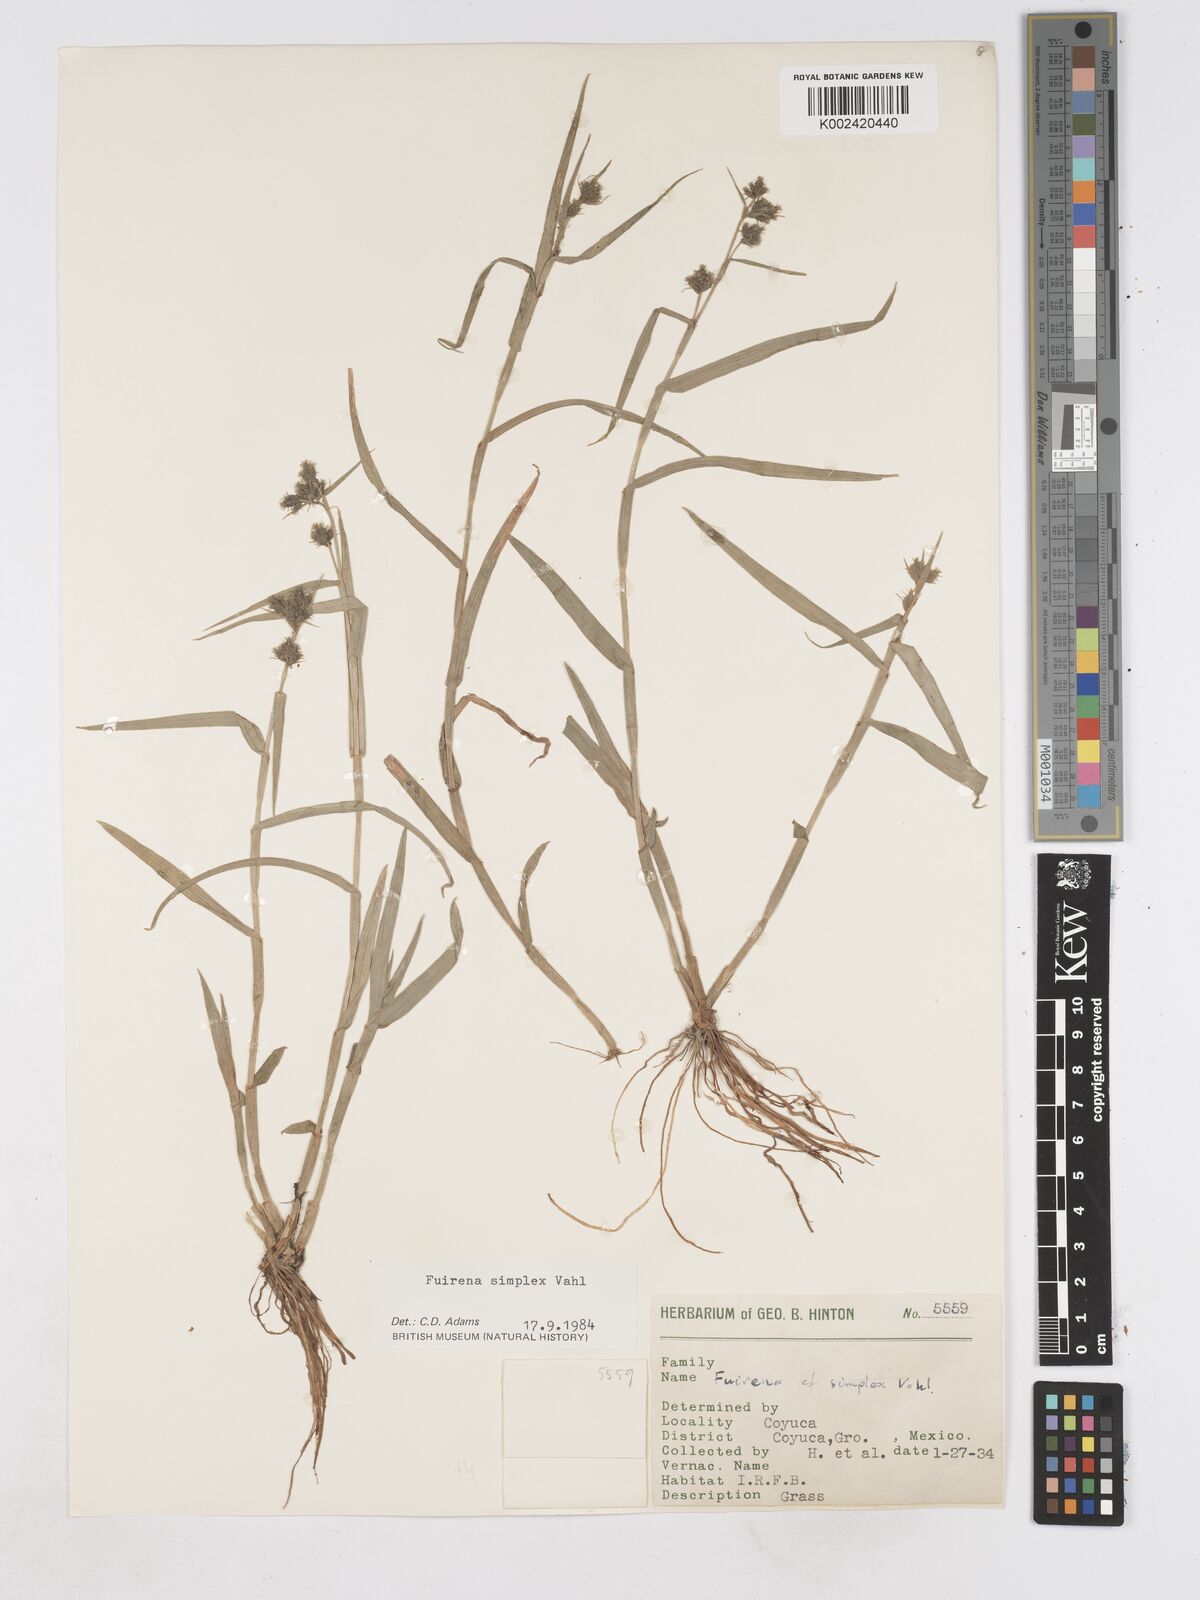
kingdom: Plantae
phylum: Tracheophyta
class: Liliopsida
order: Poales
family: Cyperaceae
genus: Fuirena
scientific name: Fuirena simplex
